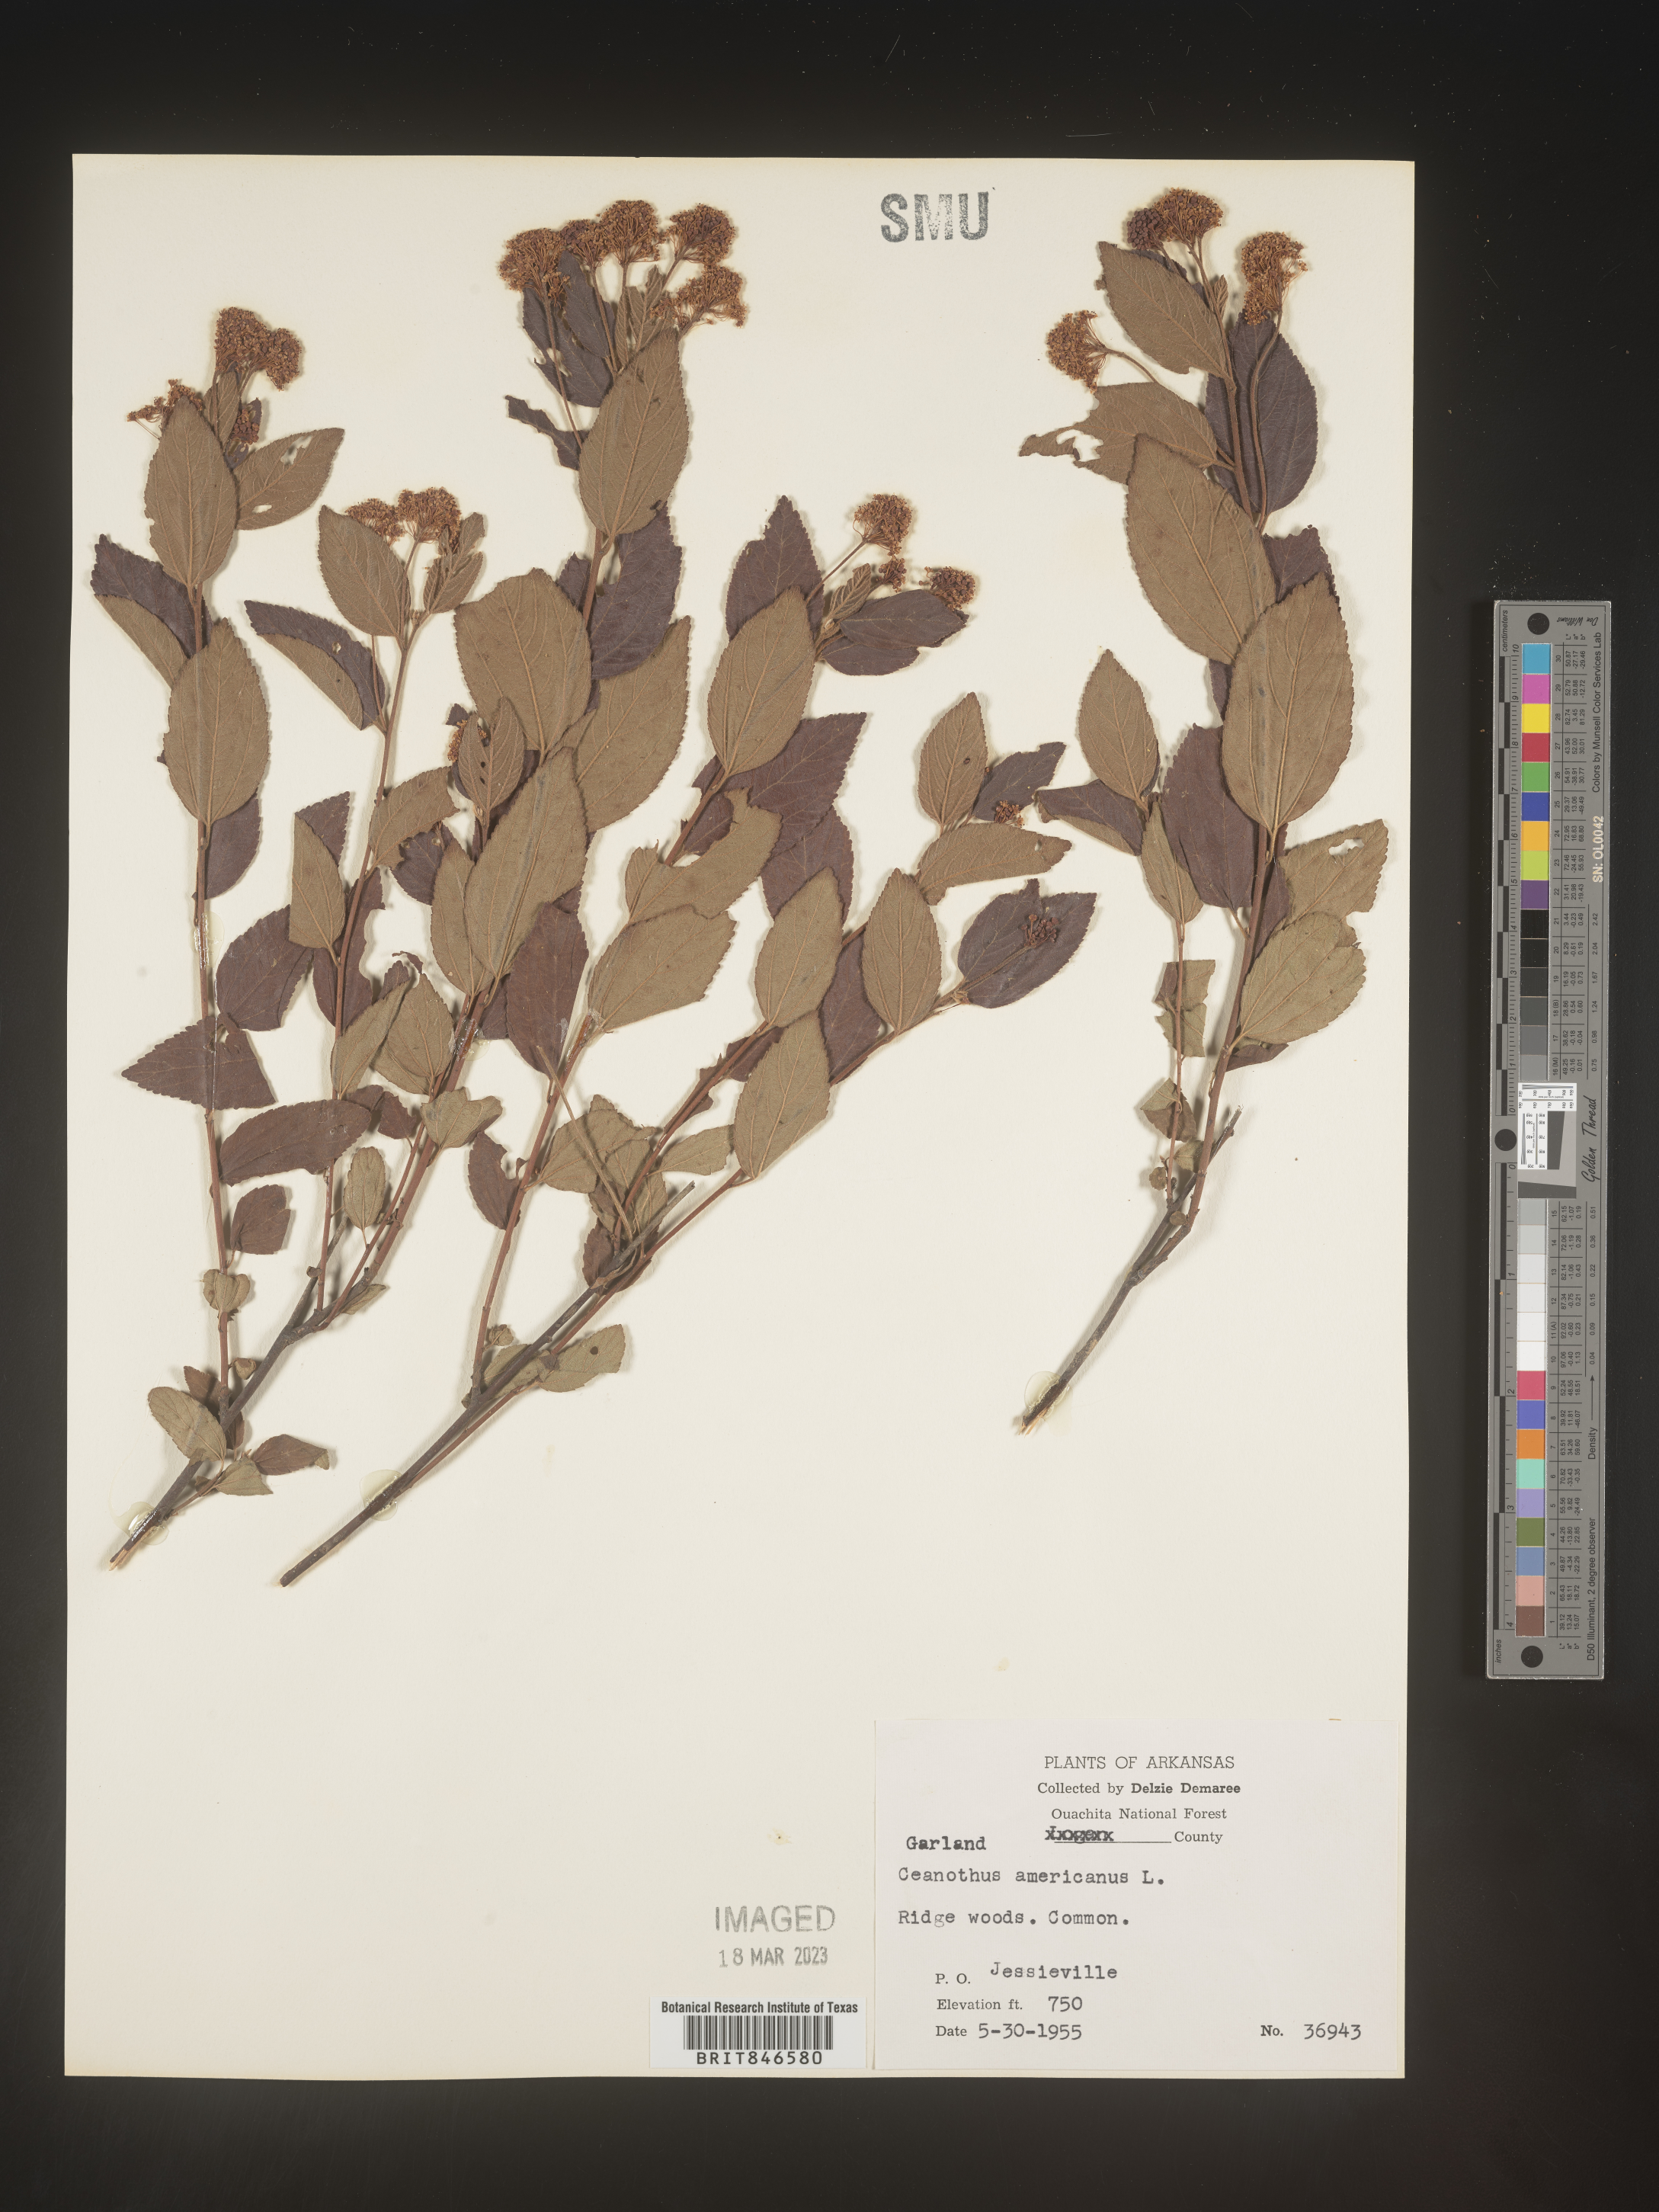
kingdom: Plantae
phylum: Tracheophyta
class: Magnoliopsida
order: Rosales
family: Rhamnaceae
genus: Ceanothus
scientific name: Ceanothus americanus
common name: Redroot
